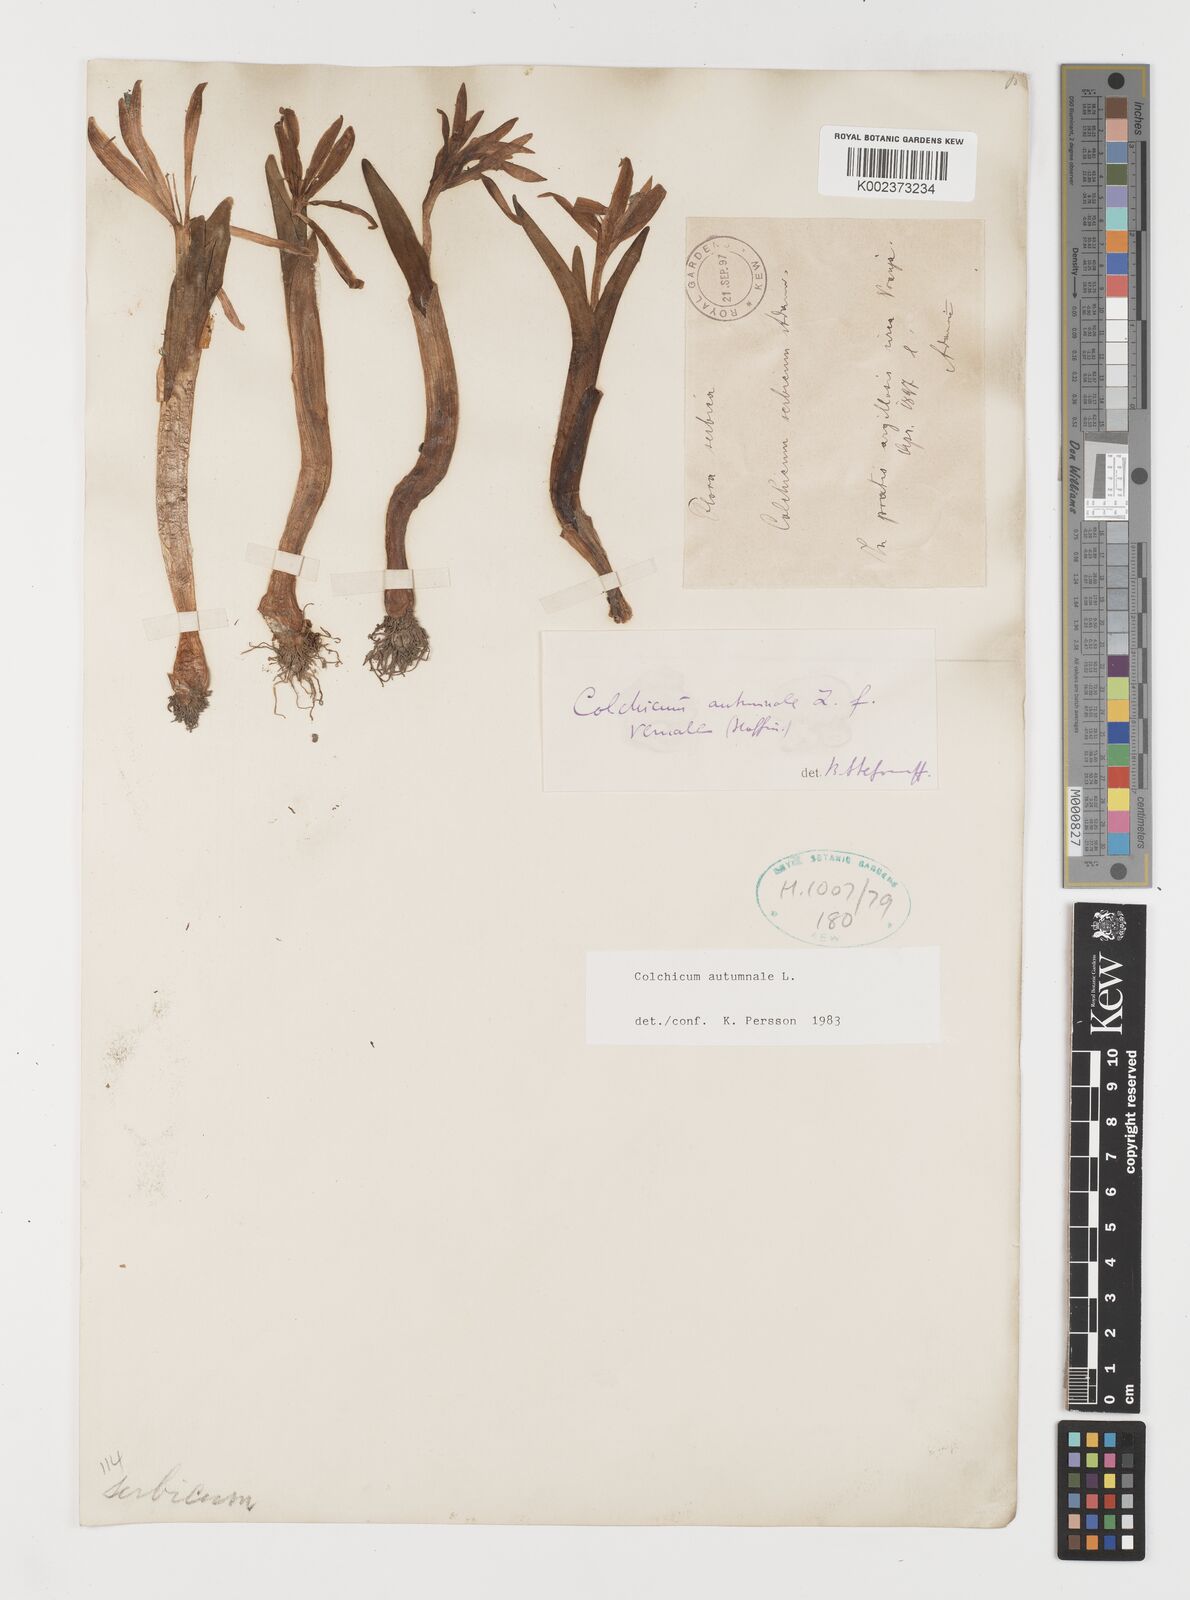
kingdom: Plantae
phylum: Tracheophyta
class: Liliopsida
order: Liliales
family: Colchicaceae
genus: Colchicum
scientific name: Colchicum autumnale
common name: Autumn crocus
